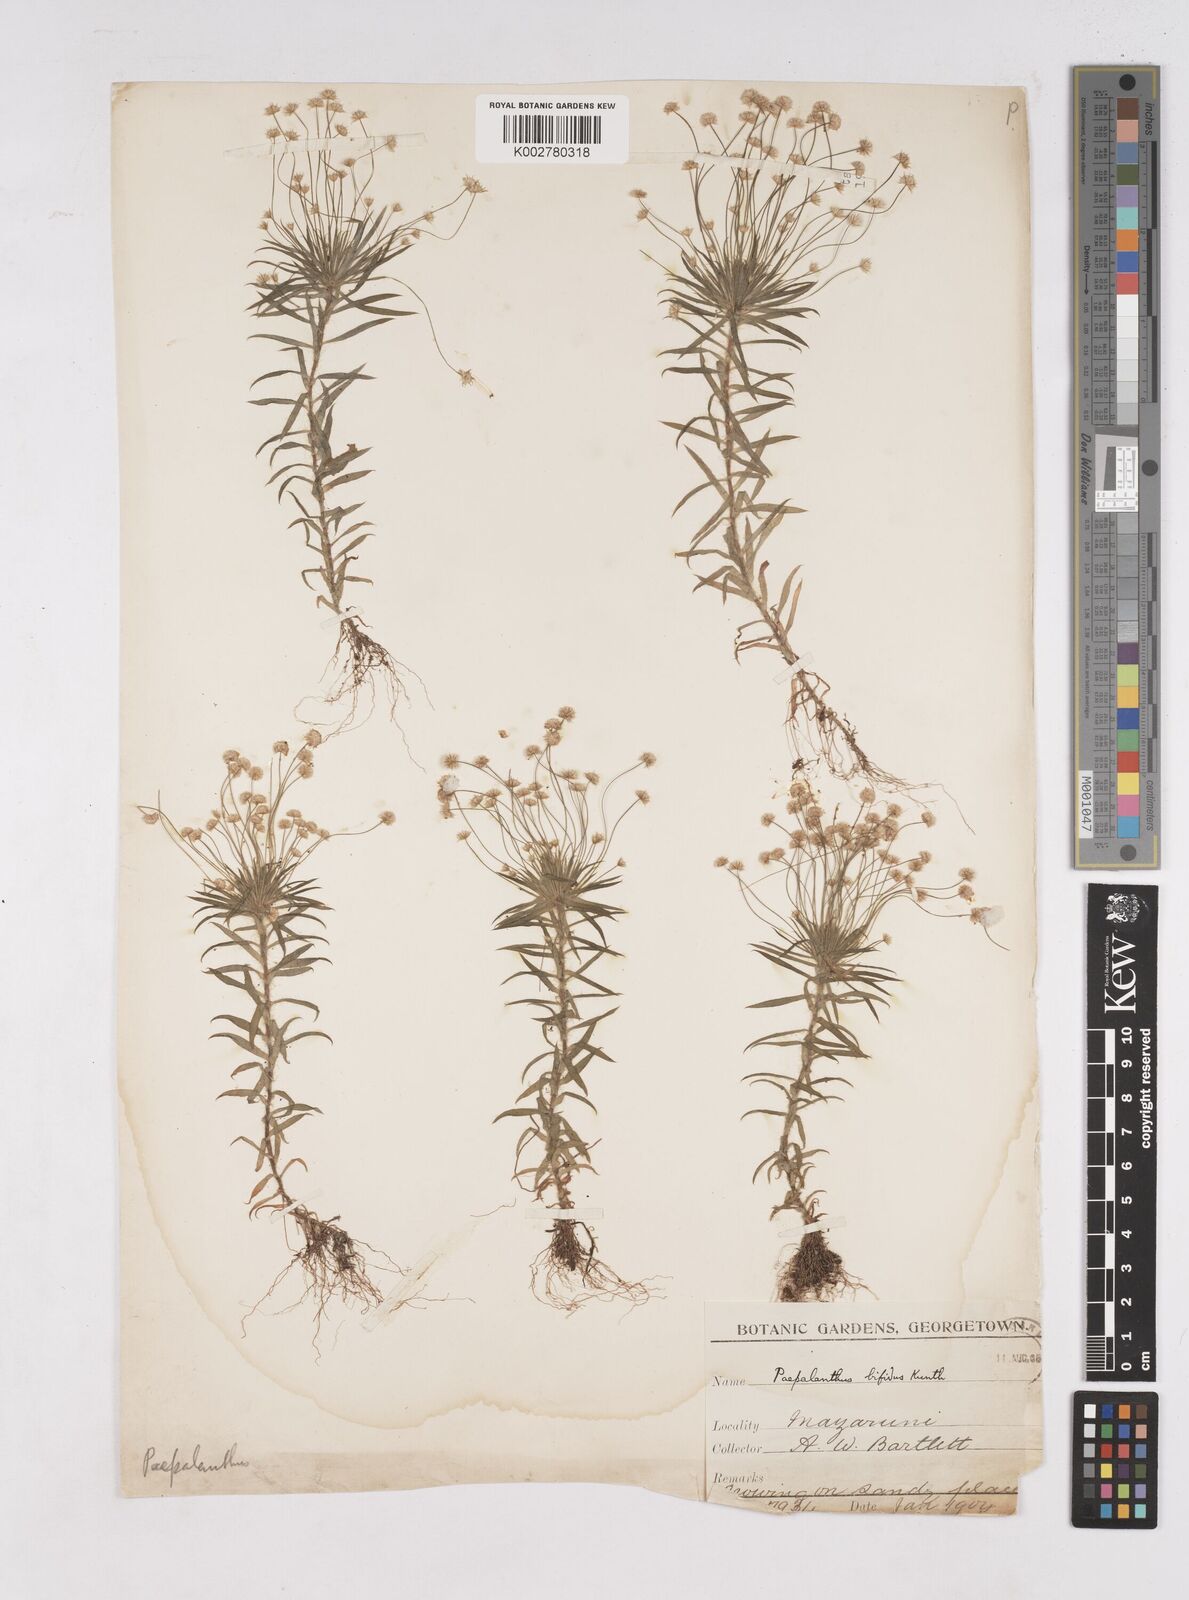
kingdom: Plantae
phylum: Tracheophyta
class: Liliopsida
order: Poales
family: Eriocaulaceae
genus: Paepalanthus
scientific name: Paepalanthus bifidus
